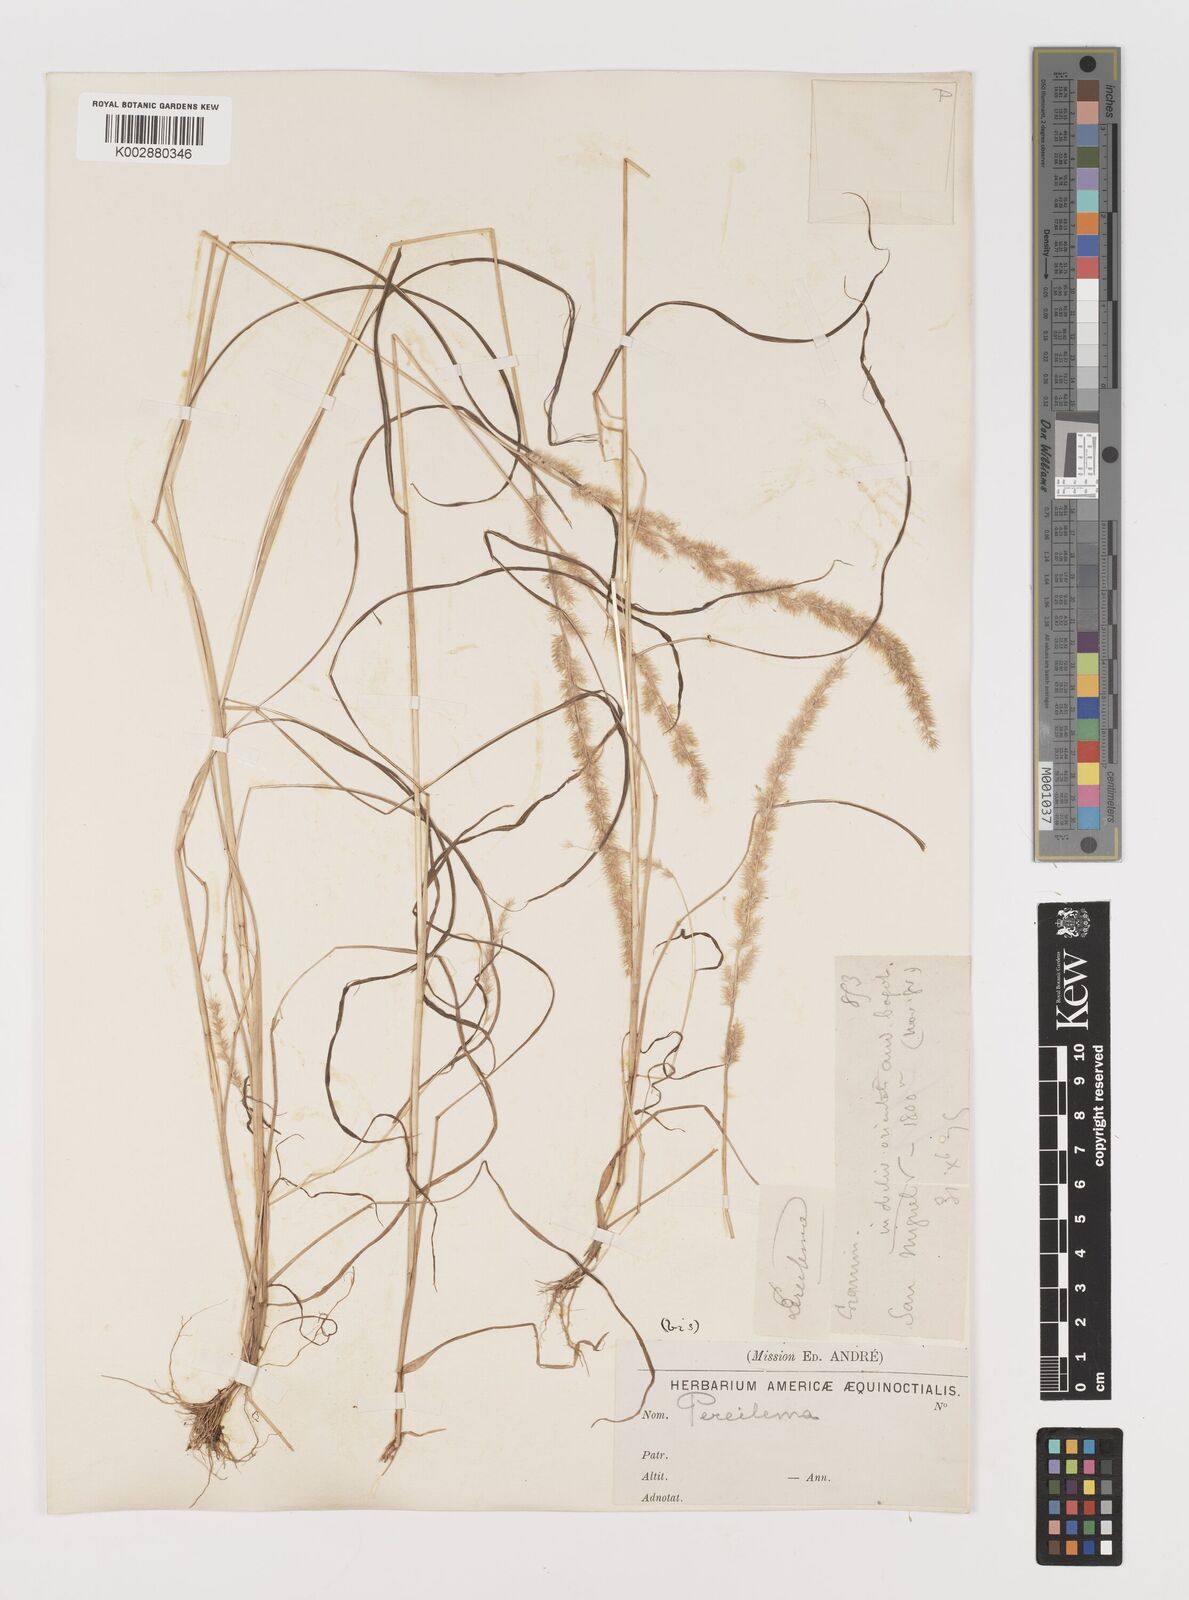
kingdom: Plantae
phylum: Tracheophyta
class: Liliopsida
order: Poales
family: Poaceae
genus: Muhlenbergia
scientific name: Muhlenbergia pereilema
